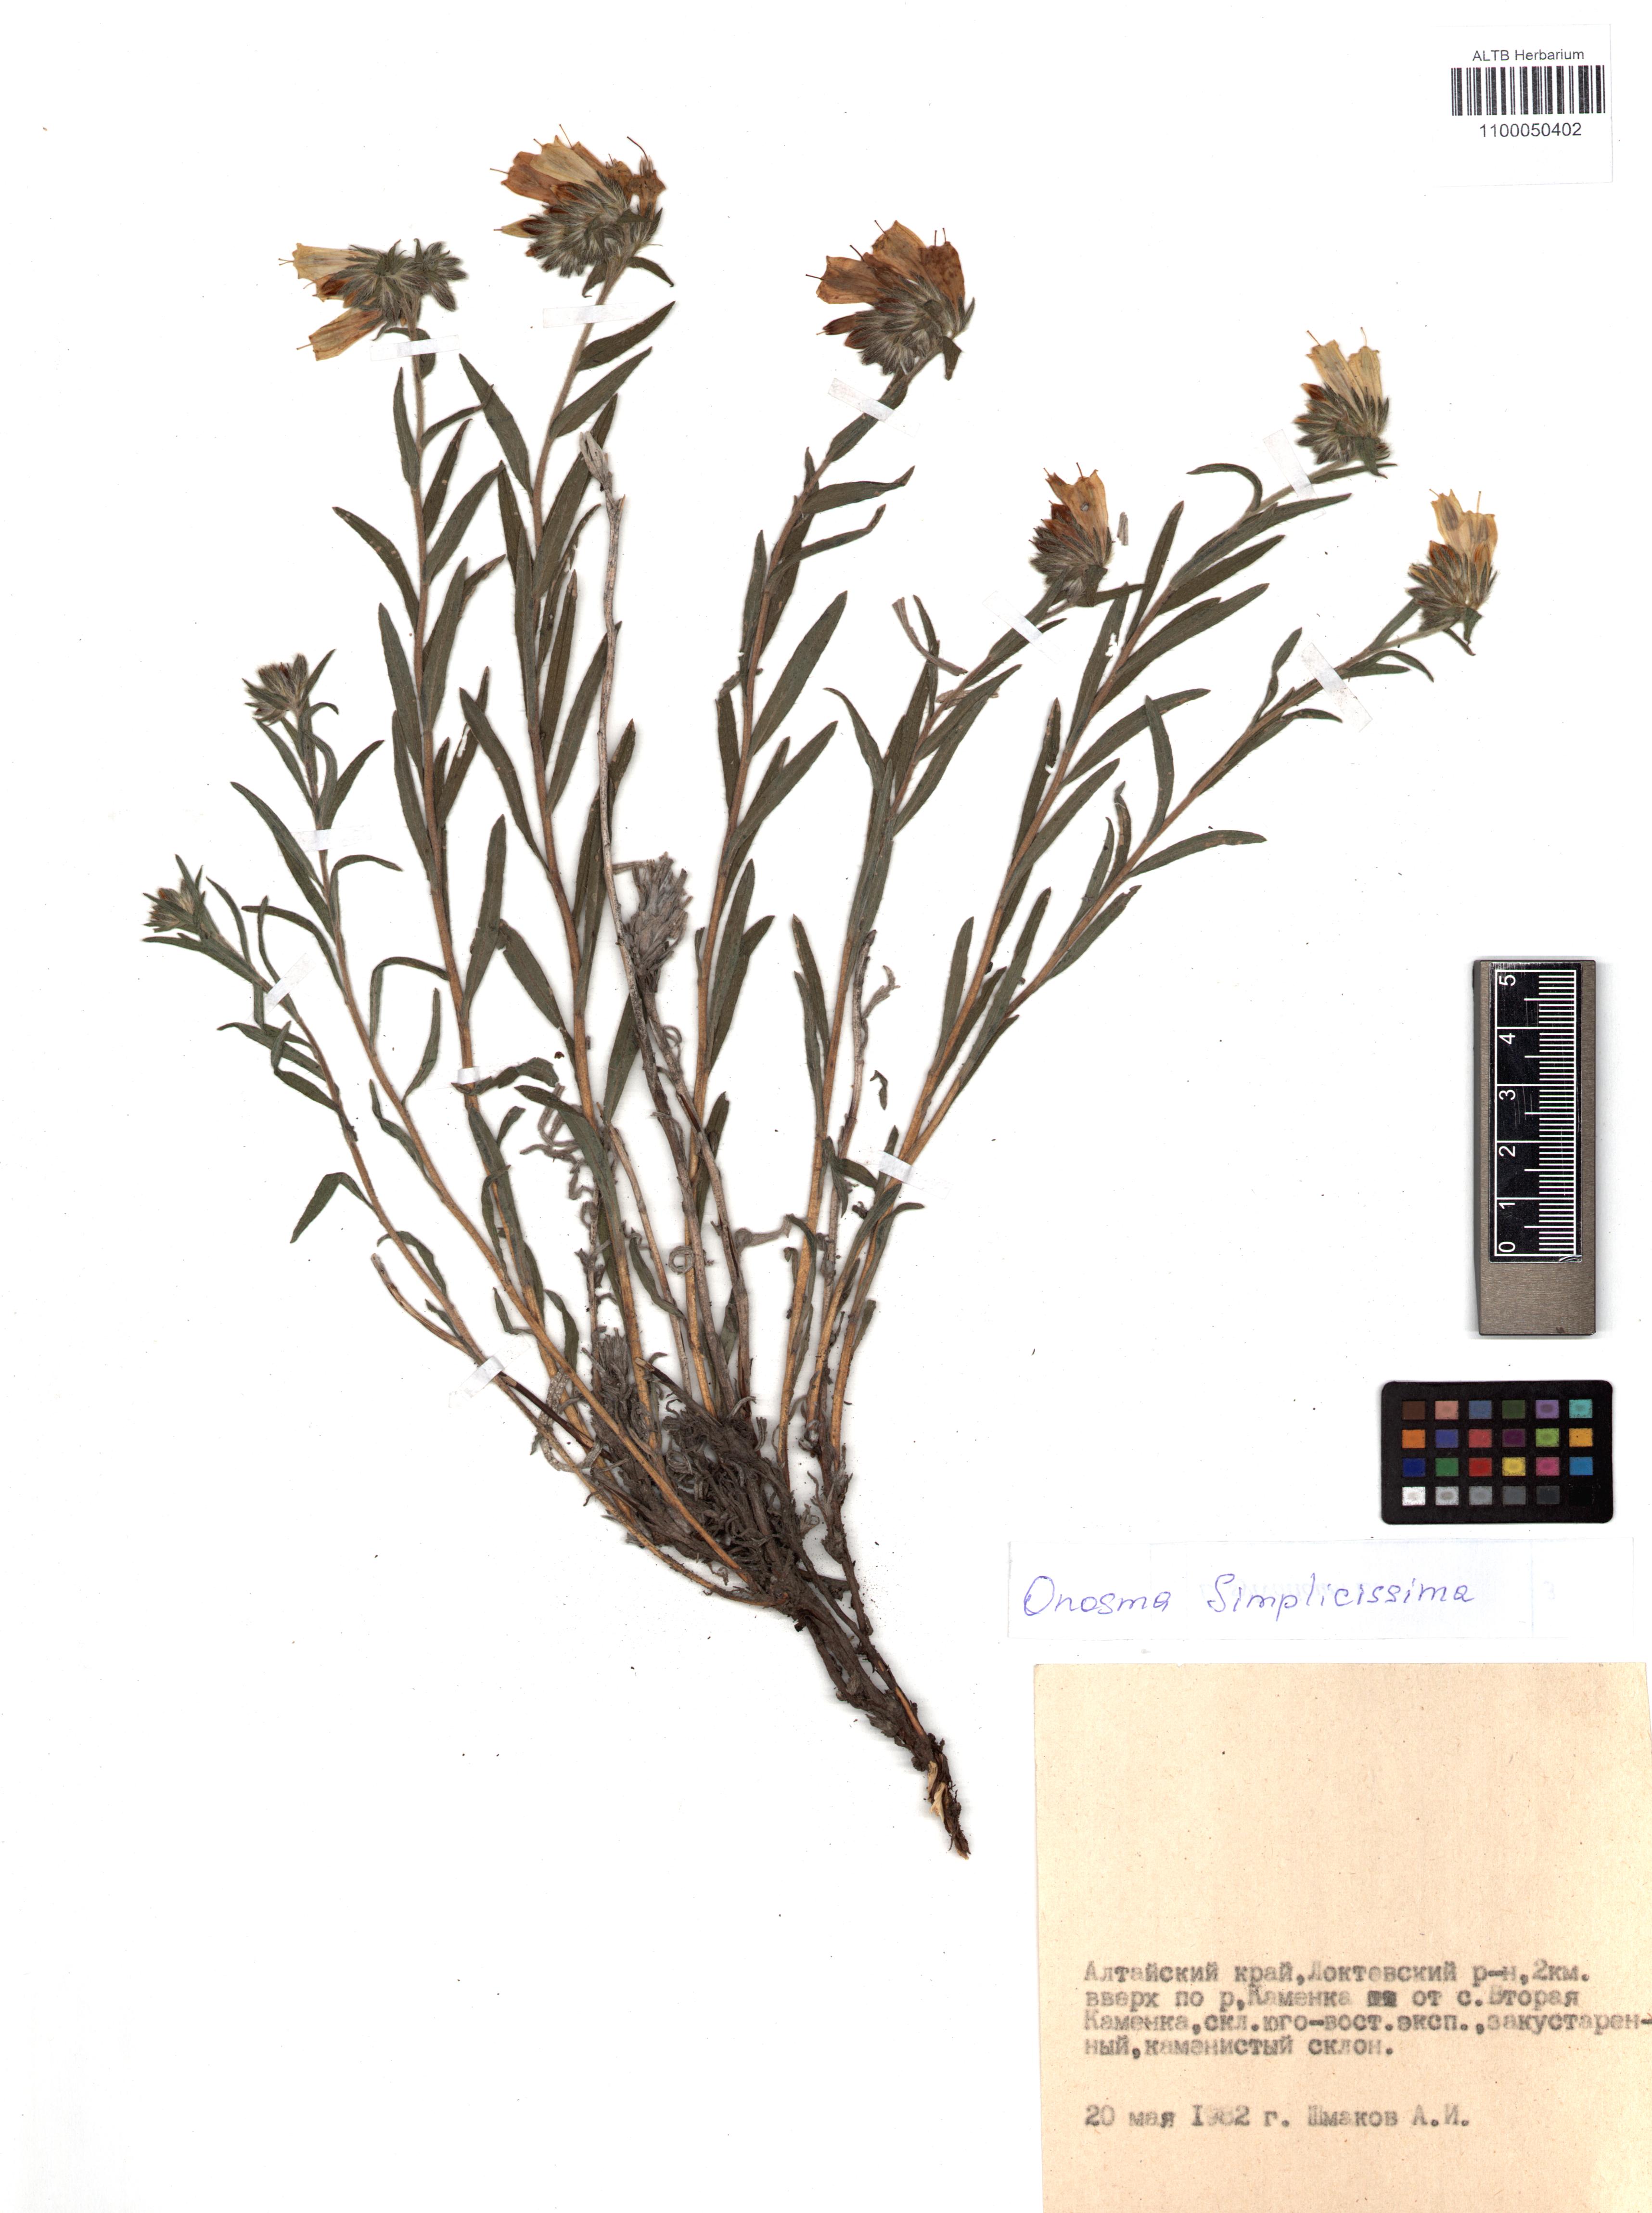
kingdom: Plantae
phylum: Tracheophyta
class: Magnoliopsida
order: Boraginales
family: Boraginaceae
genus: Onosma
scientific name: Onosma simplicissima
